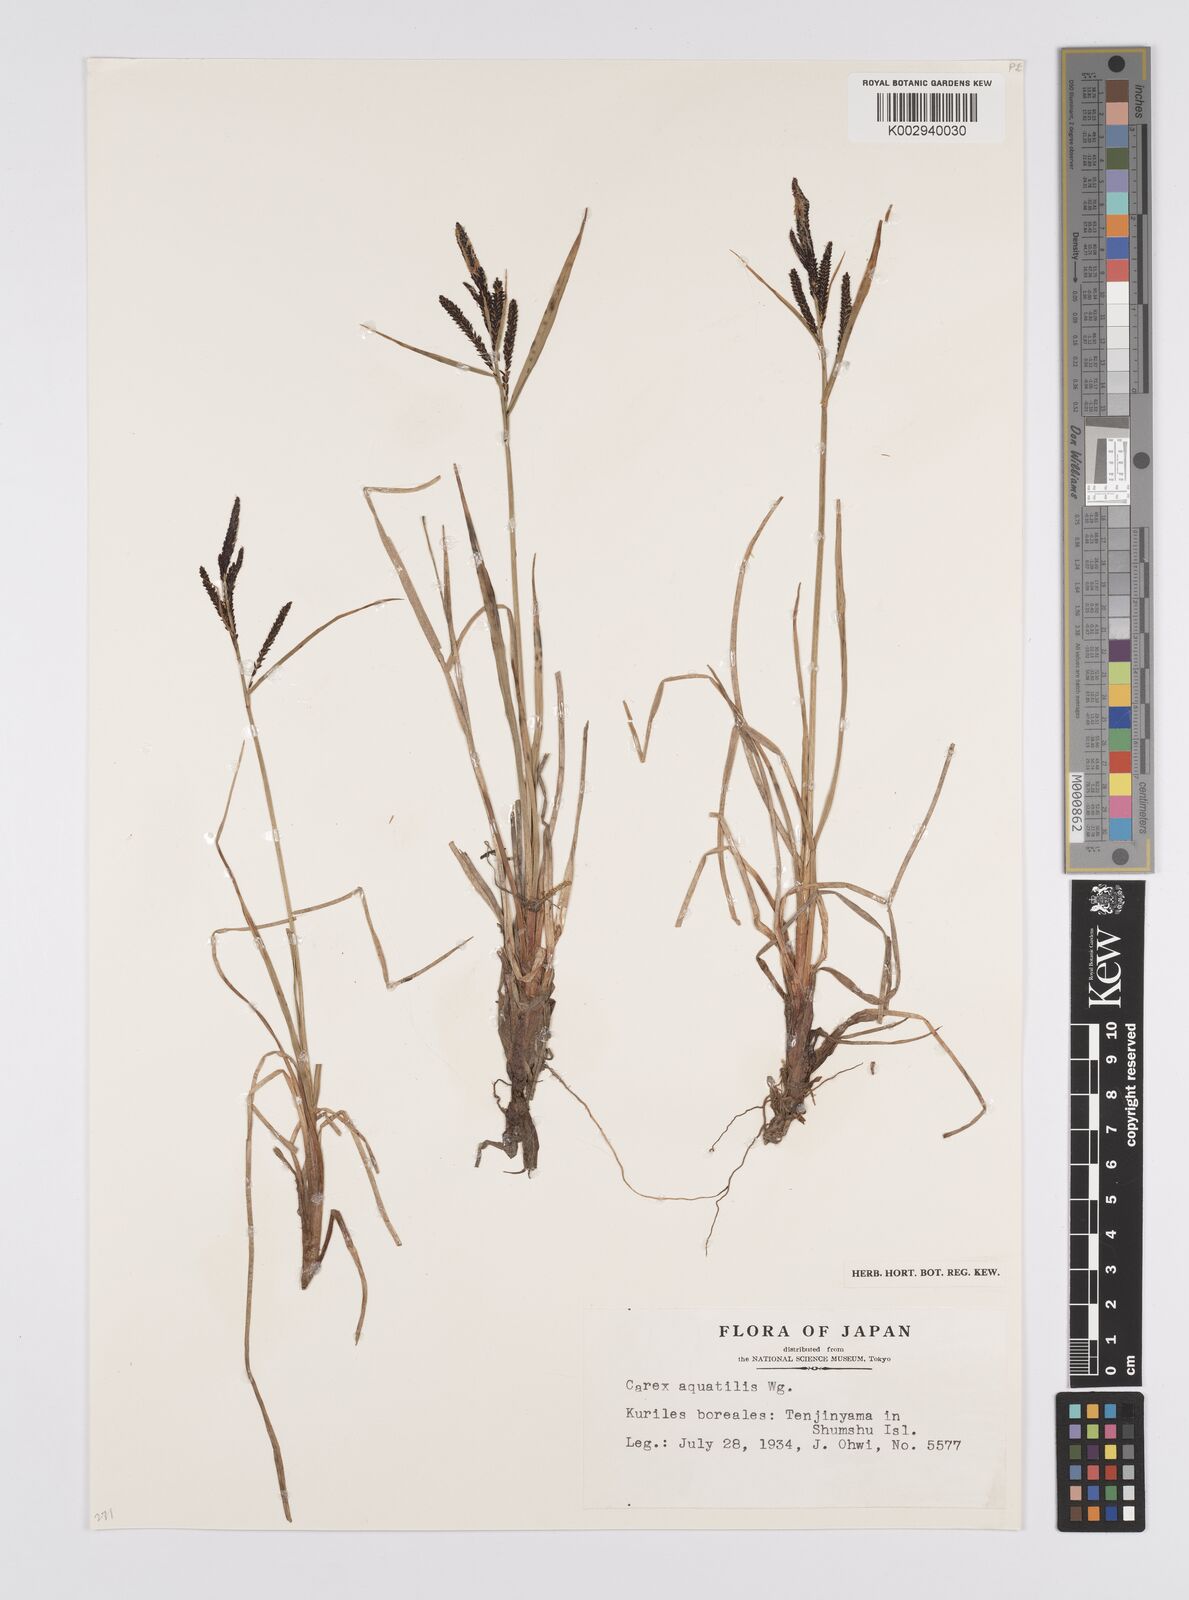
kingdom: Plantae
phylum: Tracheophyta
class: Liliopsida
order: Poales
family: Cyperaceae
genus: Carex
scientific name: Carex aquatilis
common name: Water sedge
